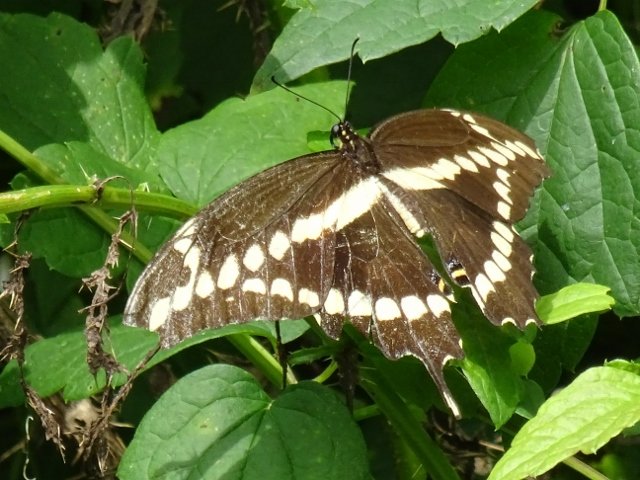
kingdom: Animalia
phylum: Arthropoda
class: Insecta
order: Lepidoptera
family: Papilionidae
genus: Papilio
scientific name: Papilio cresphontes
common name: Eastern Giant Swallowtail
